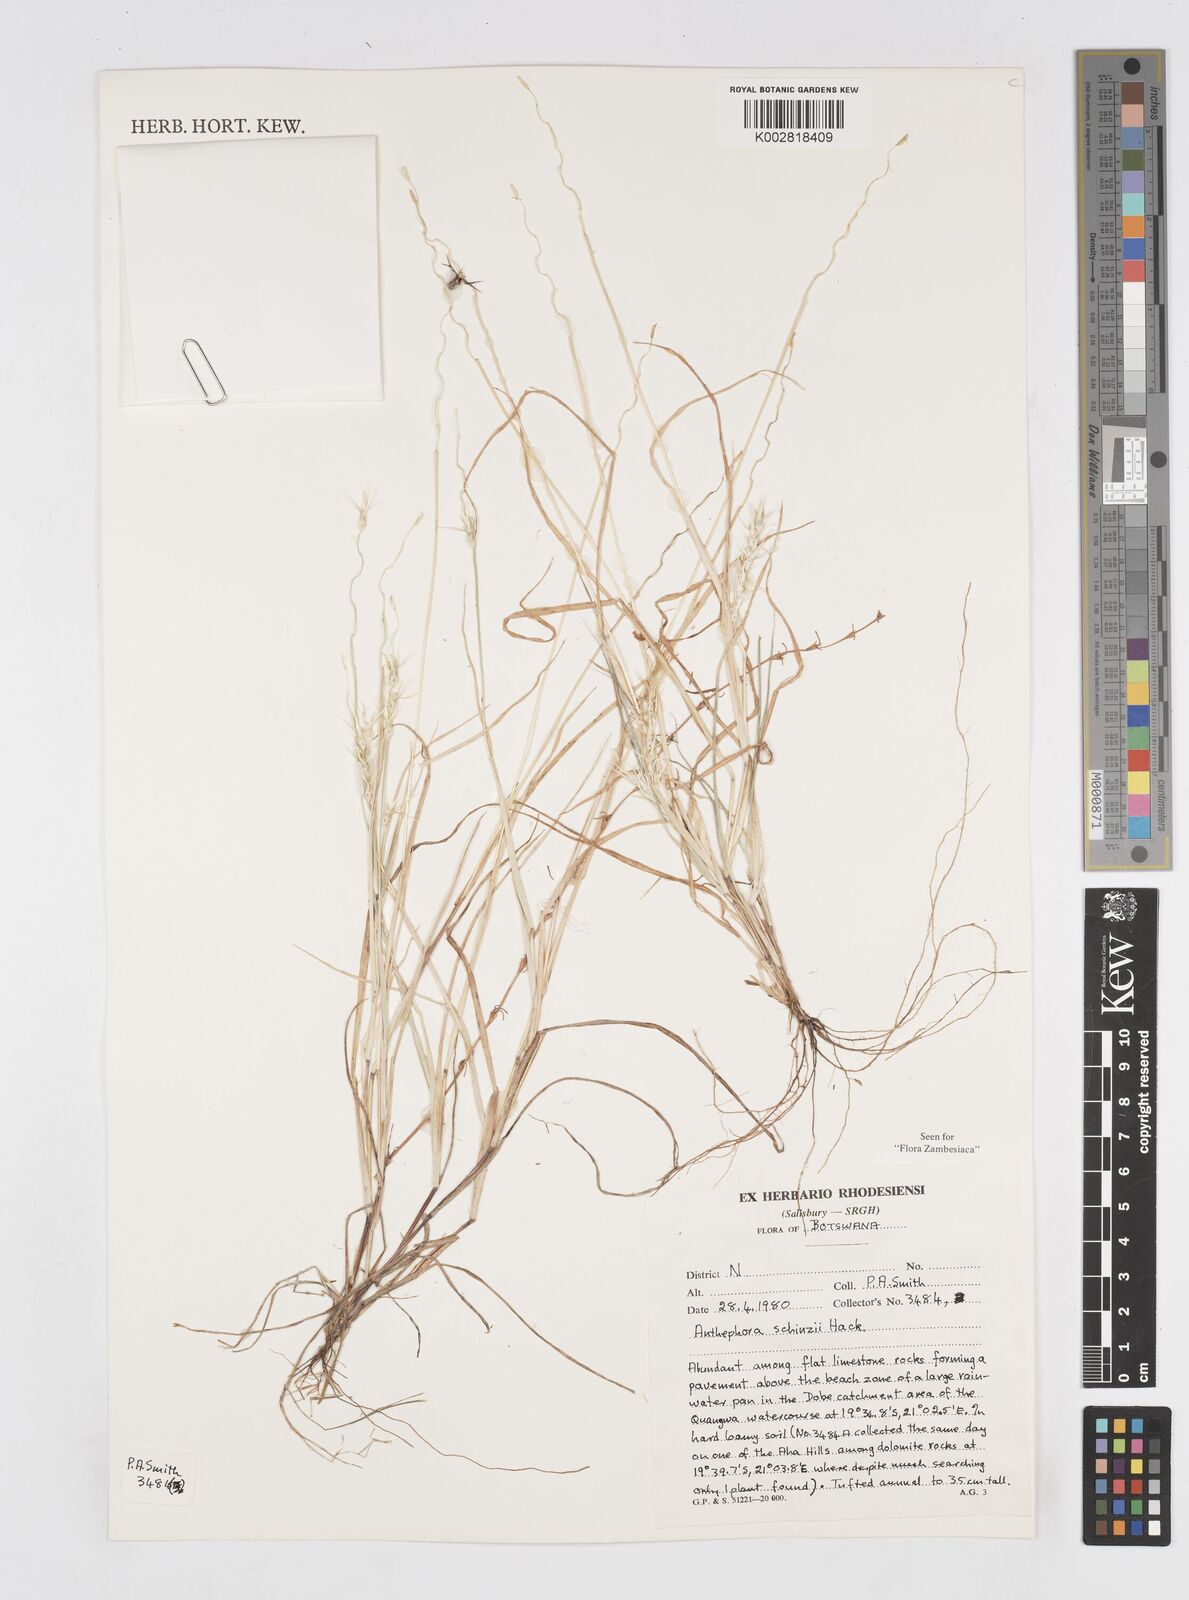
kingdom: Plantae
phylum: Tracheophyta
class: Liliopsida
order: Poales
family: Poaceae
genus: Anthephora
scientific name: Anthephora schinzii
